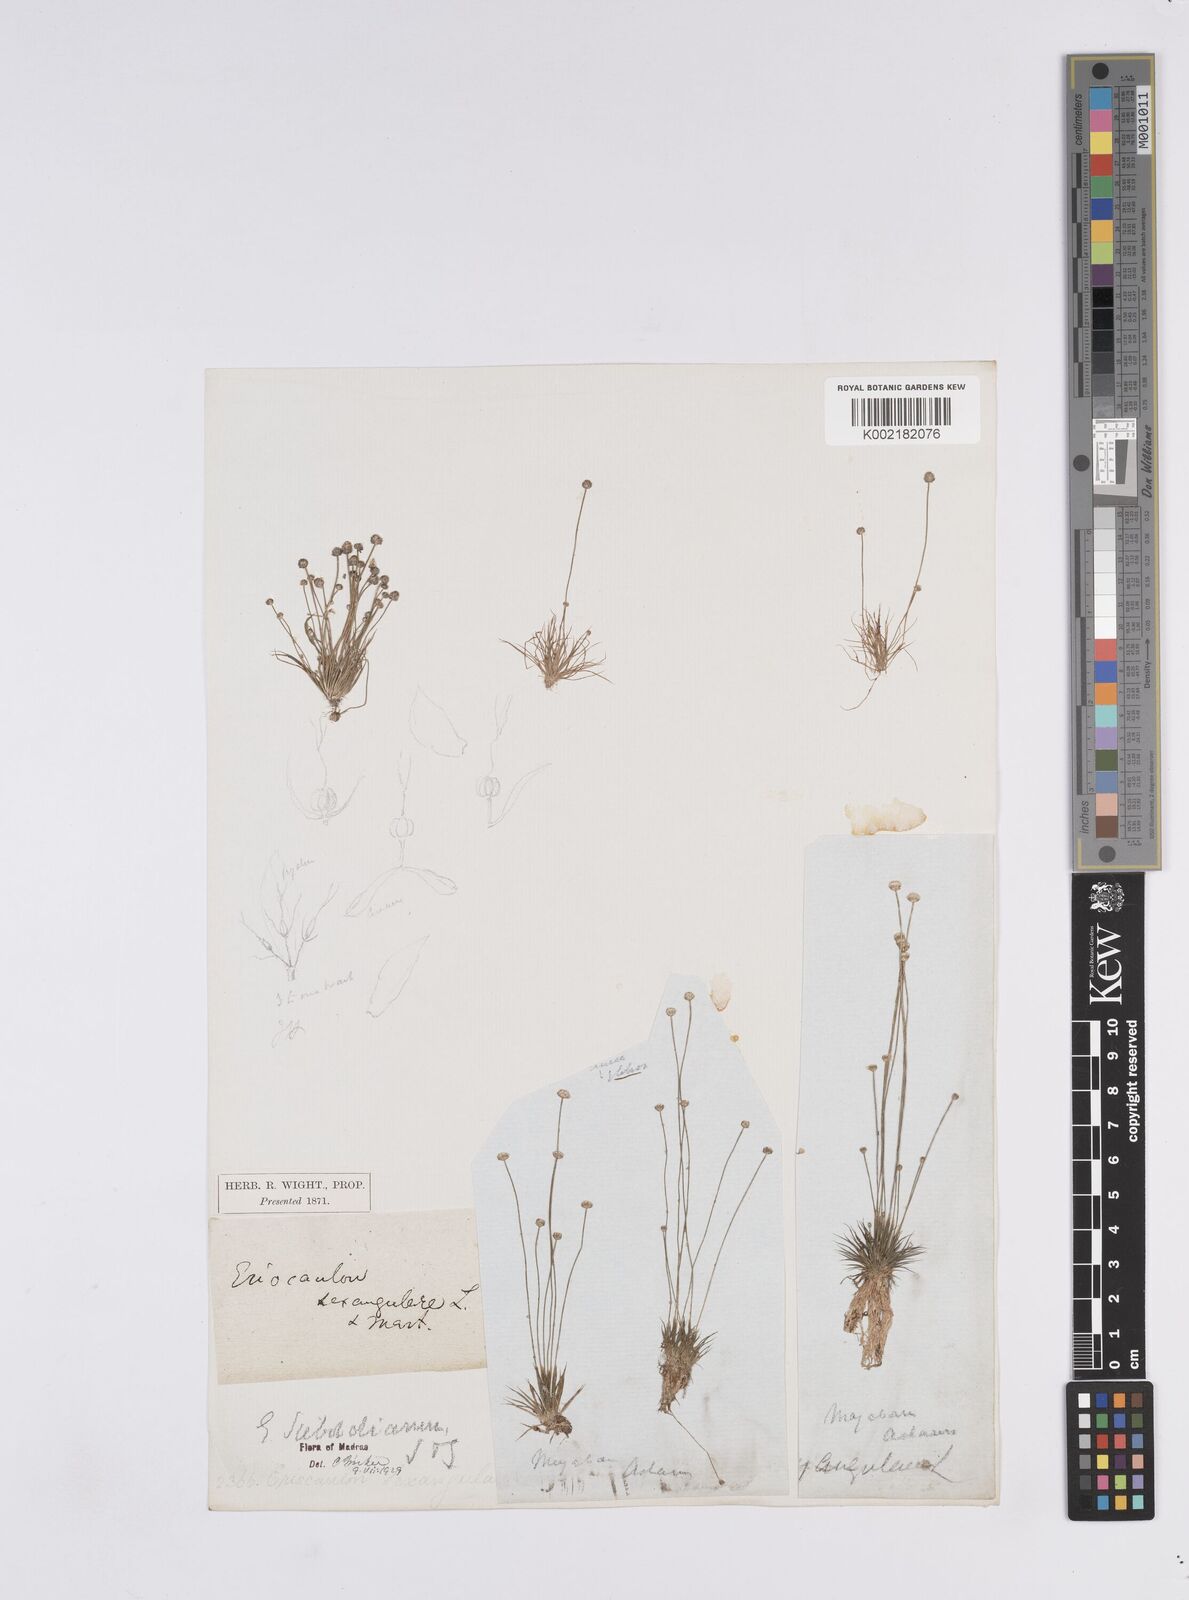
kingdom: Plantae
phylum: Tracheophyta
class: Liliopsida
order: Poales
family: Eriocaulaceae
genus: Eriocaulon
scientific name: Eriocaulon cinereum
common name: Ashy pipewort
